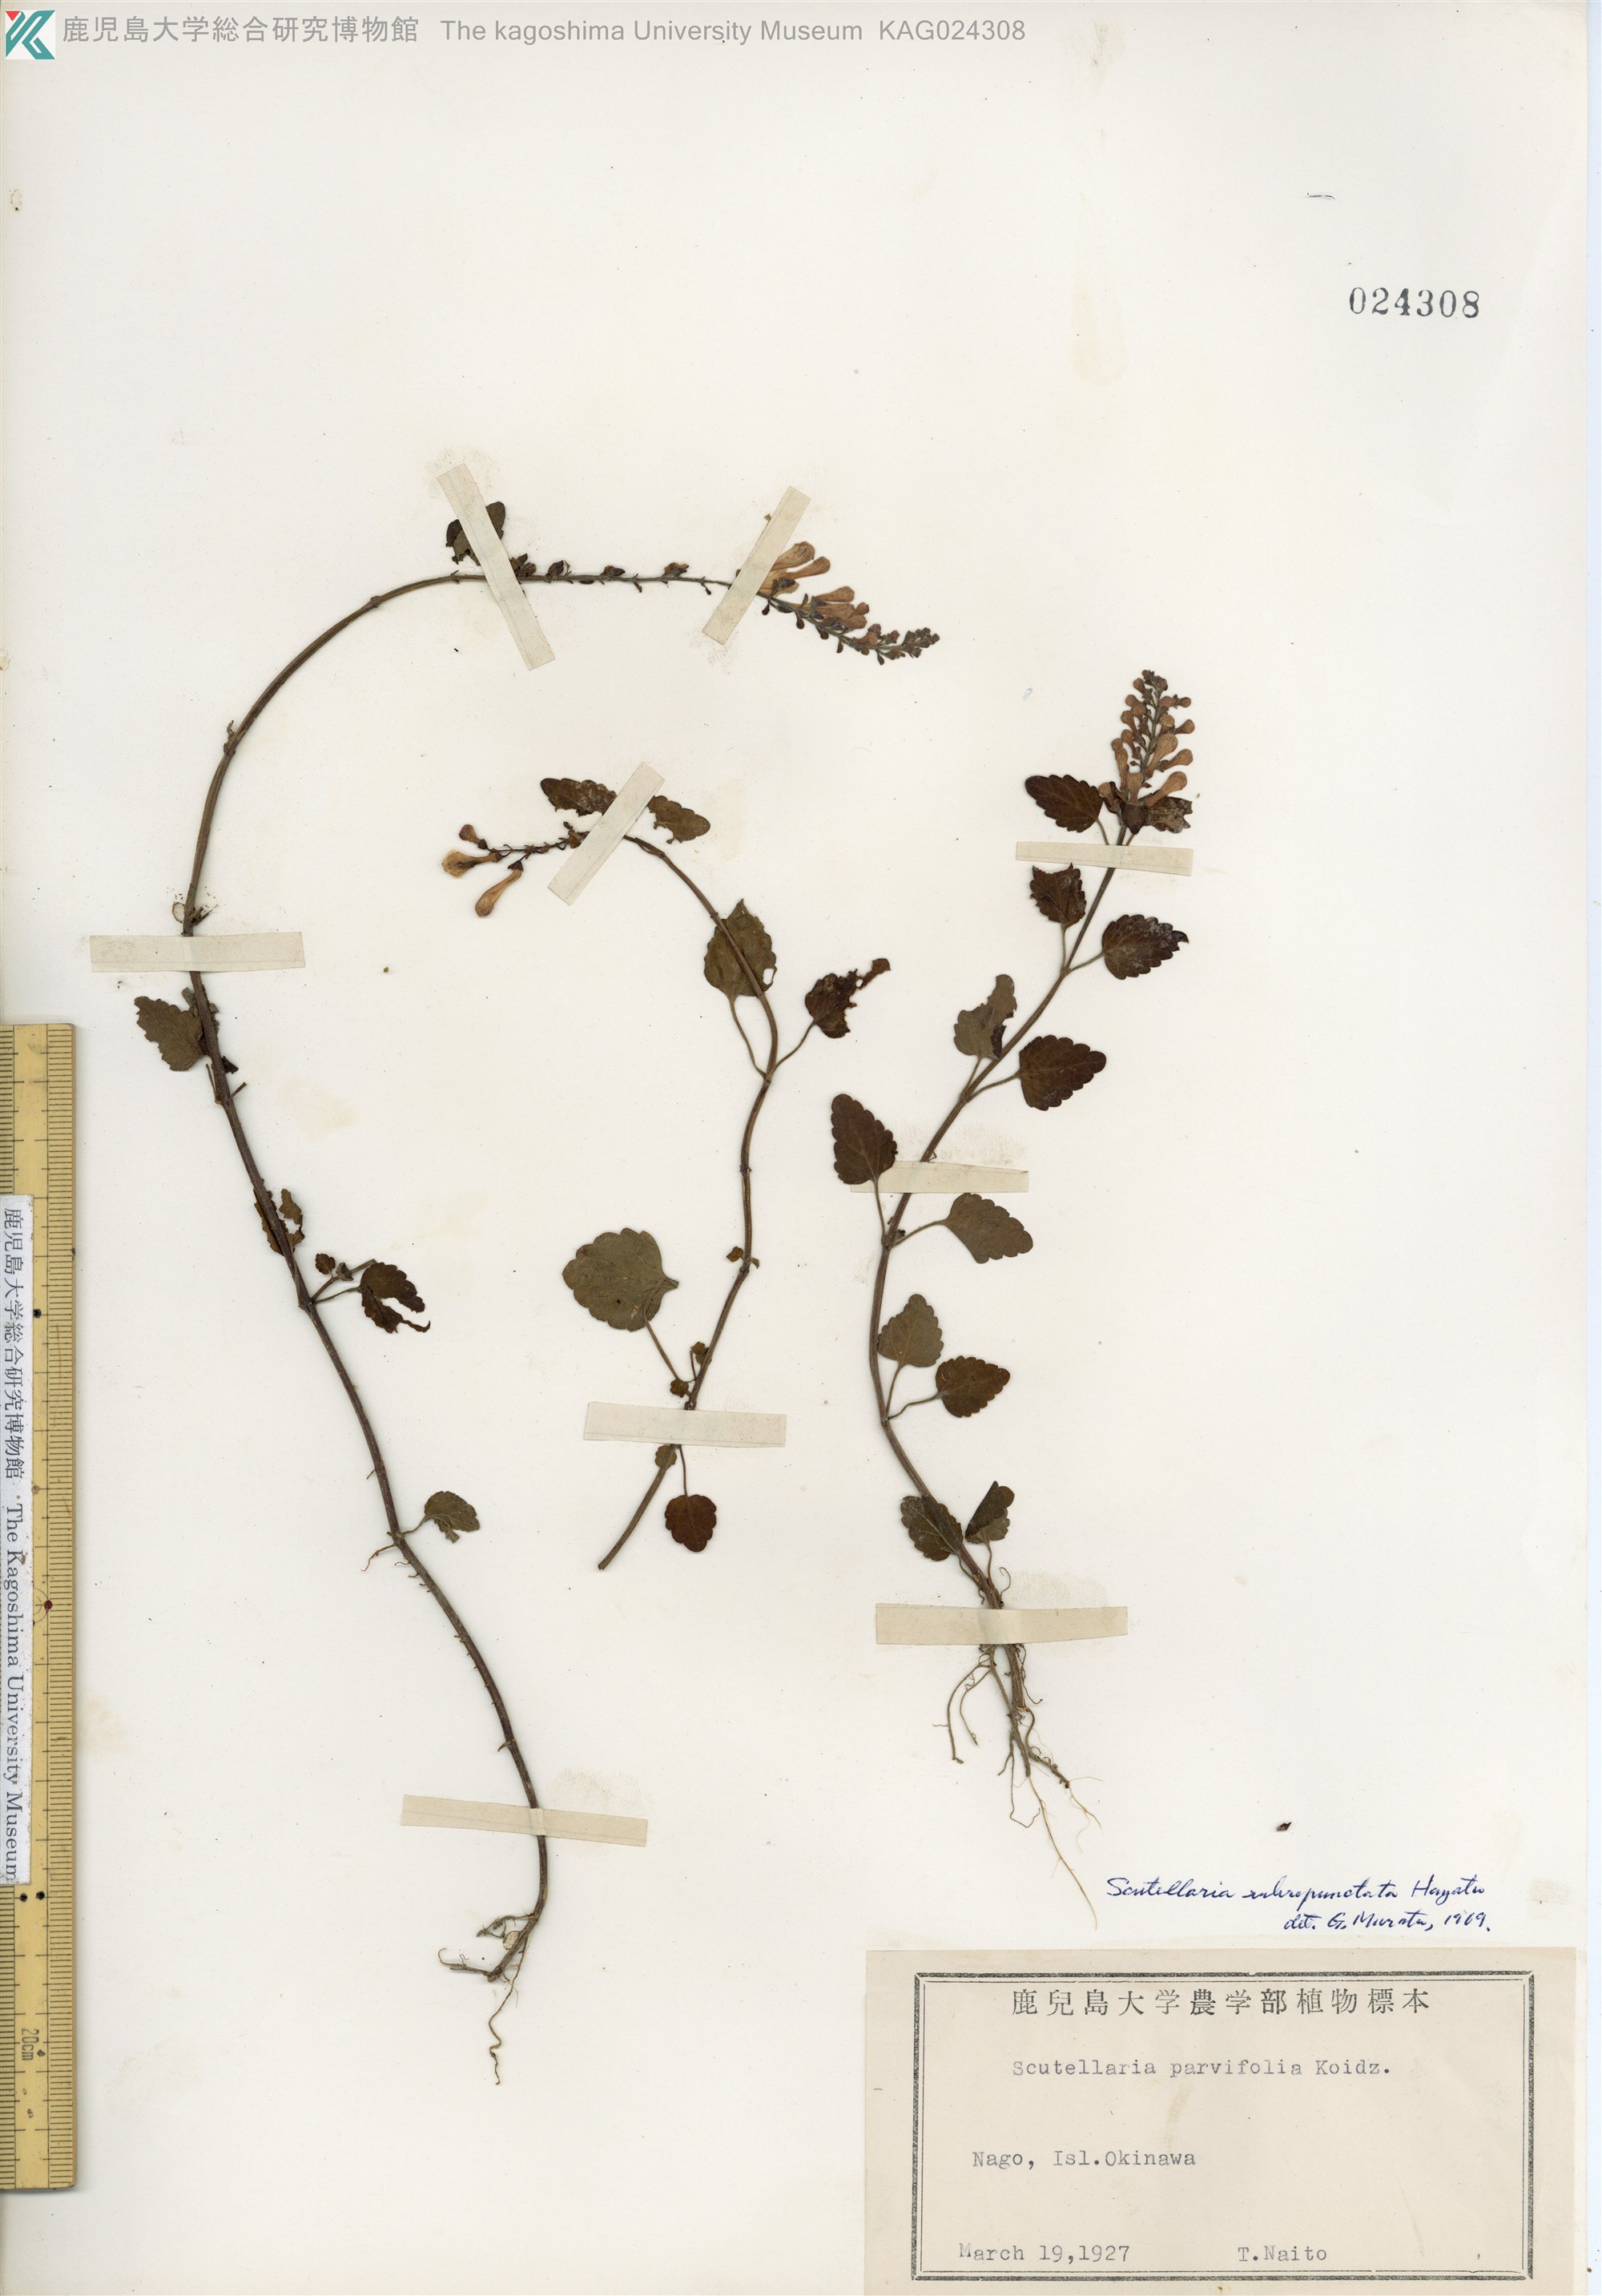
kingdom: Plantae
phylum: Tracheophyta
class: Magnoliopsida
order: Lamiales
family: Lamiaceae
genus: Scutellaria
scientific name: Scutellaria rubropunctata
